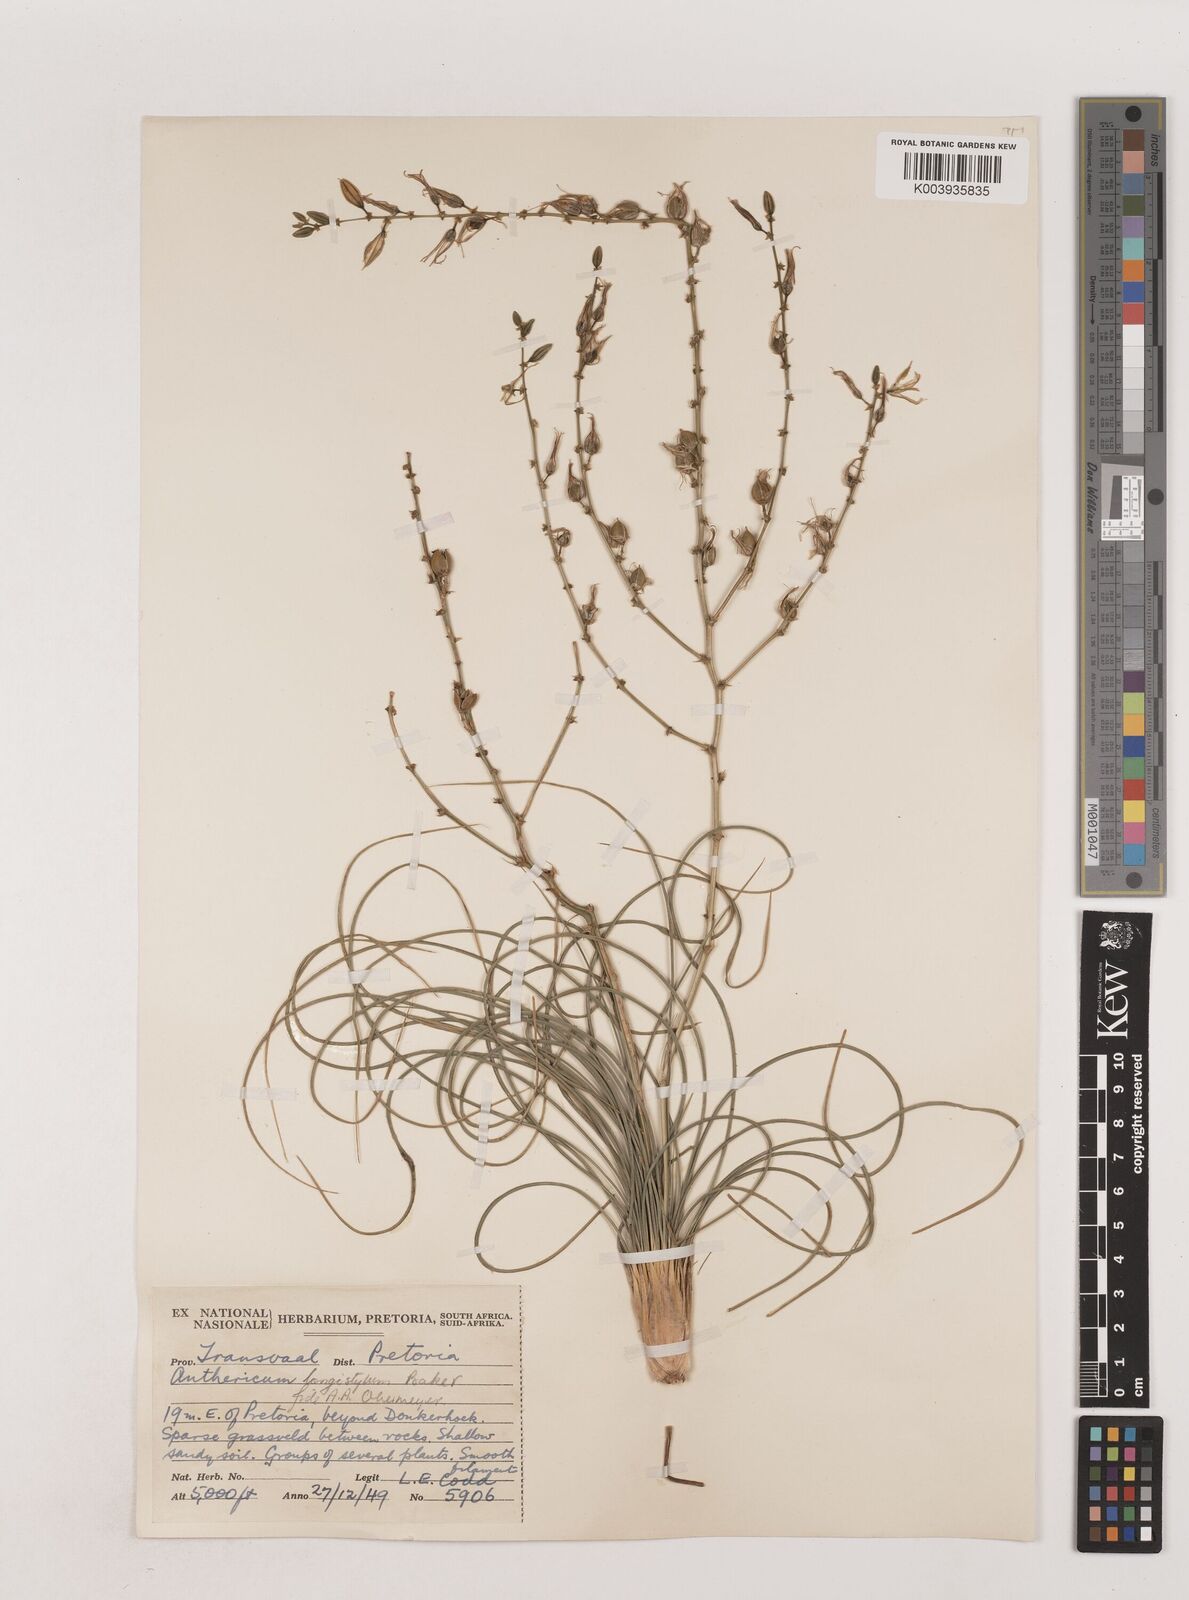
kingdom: Plantae
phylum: Tracheophyta
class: Liliopsida
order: Asparagales
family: Asparagaceae
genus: Chlorophytum
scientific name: Chlorophytum recurvifolium
